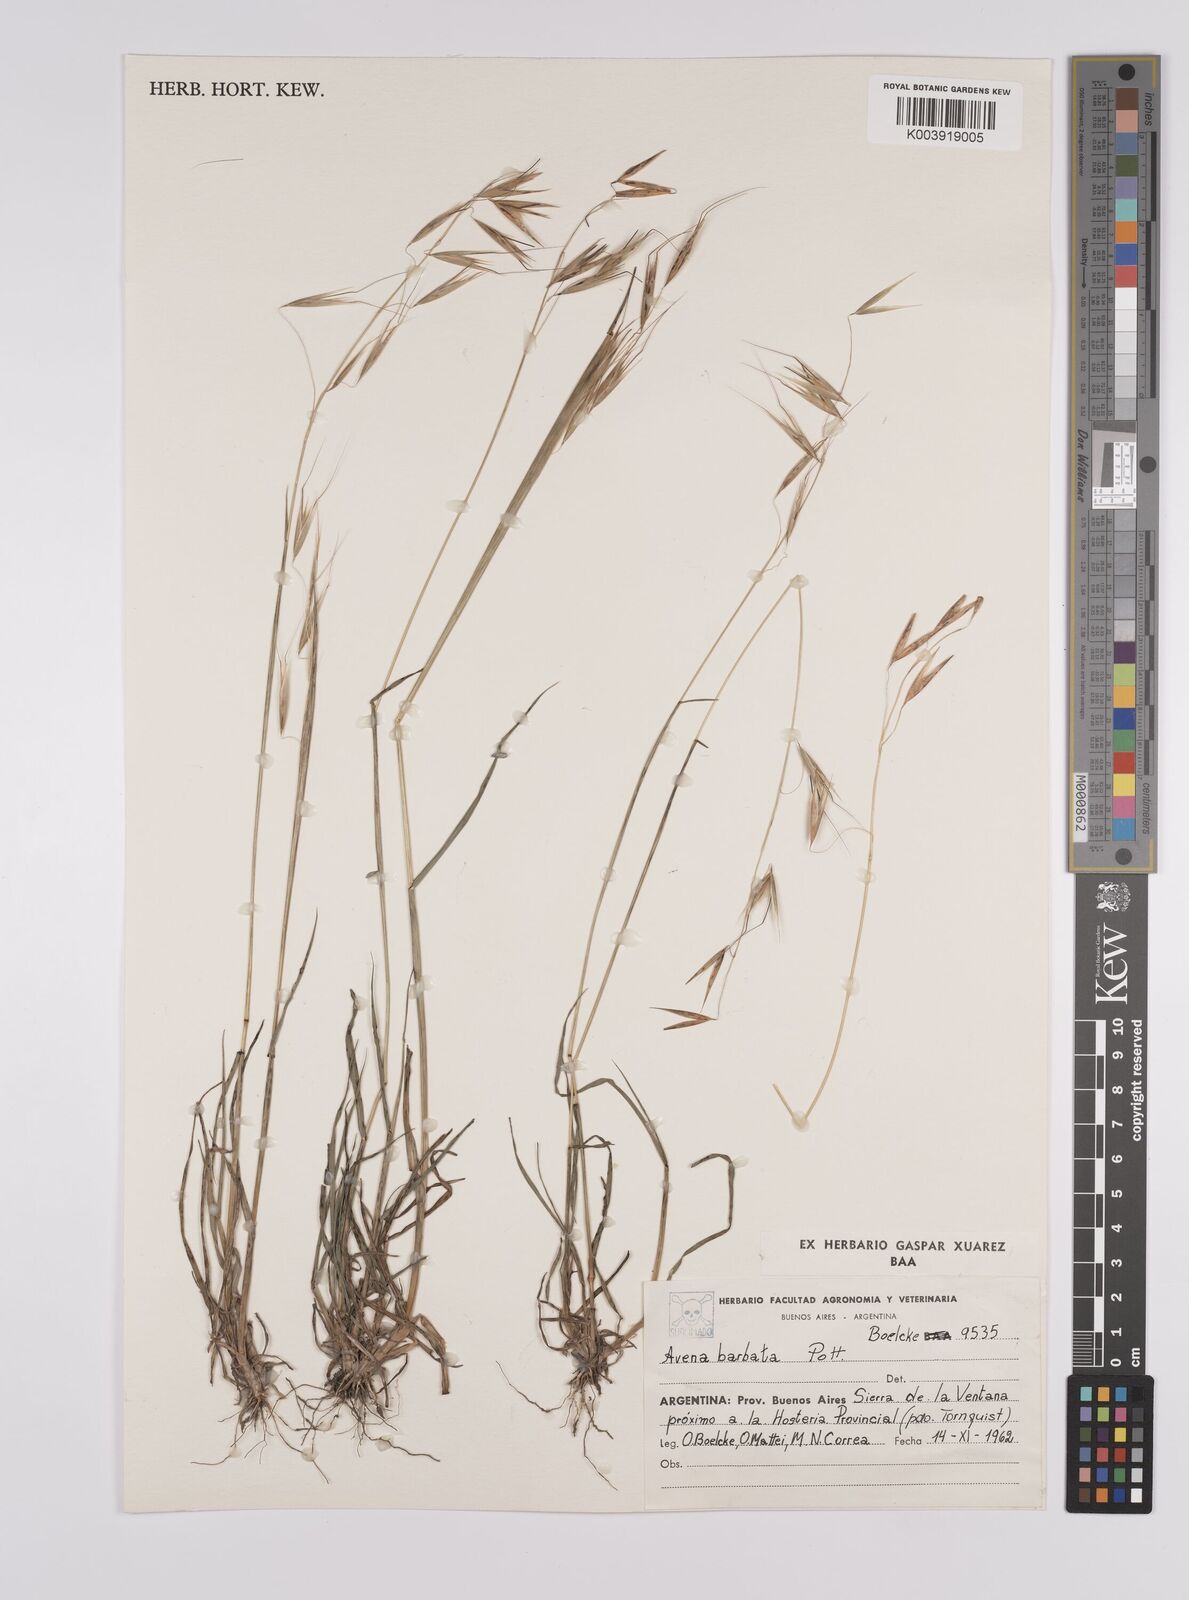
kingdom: Plantae
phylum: Tracheophyta
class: Liliopsida
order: Poales
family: Poaceae
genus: Avena
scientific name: Avena
